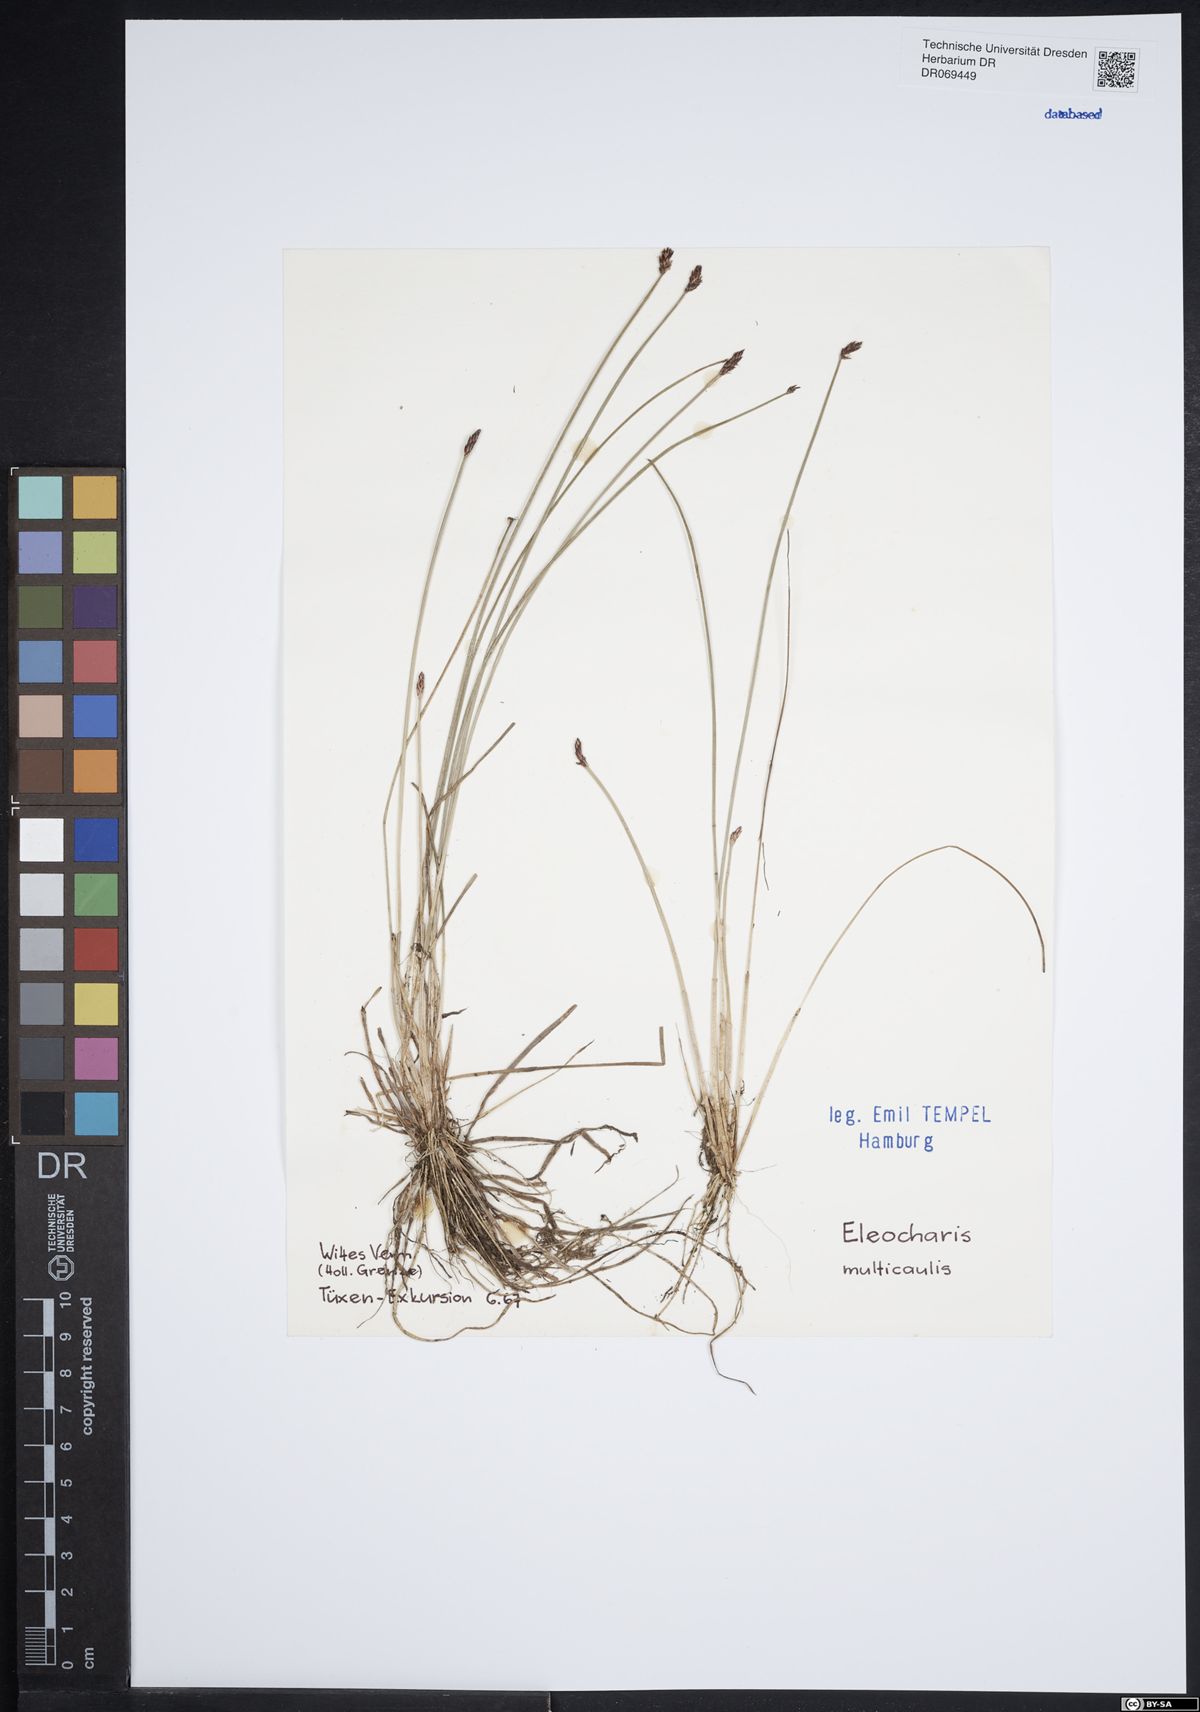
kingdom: Plantae
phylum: Tracheophyta
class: Liliopsida
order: Poales
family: Cyperaceae
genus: Eleocharis
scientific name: Eleocharis multicaulis
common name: Many-stalked spike-rush
